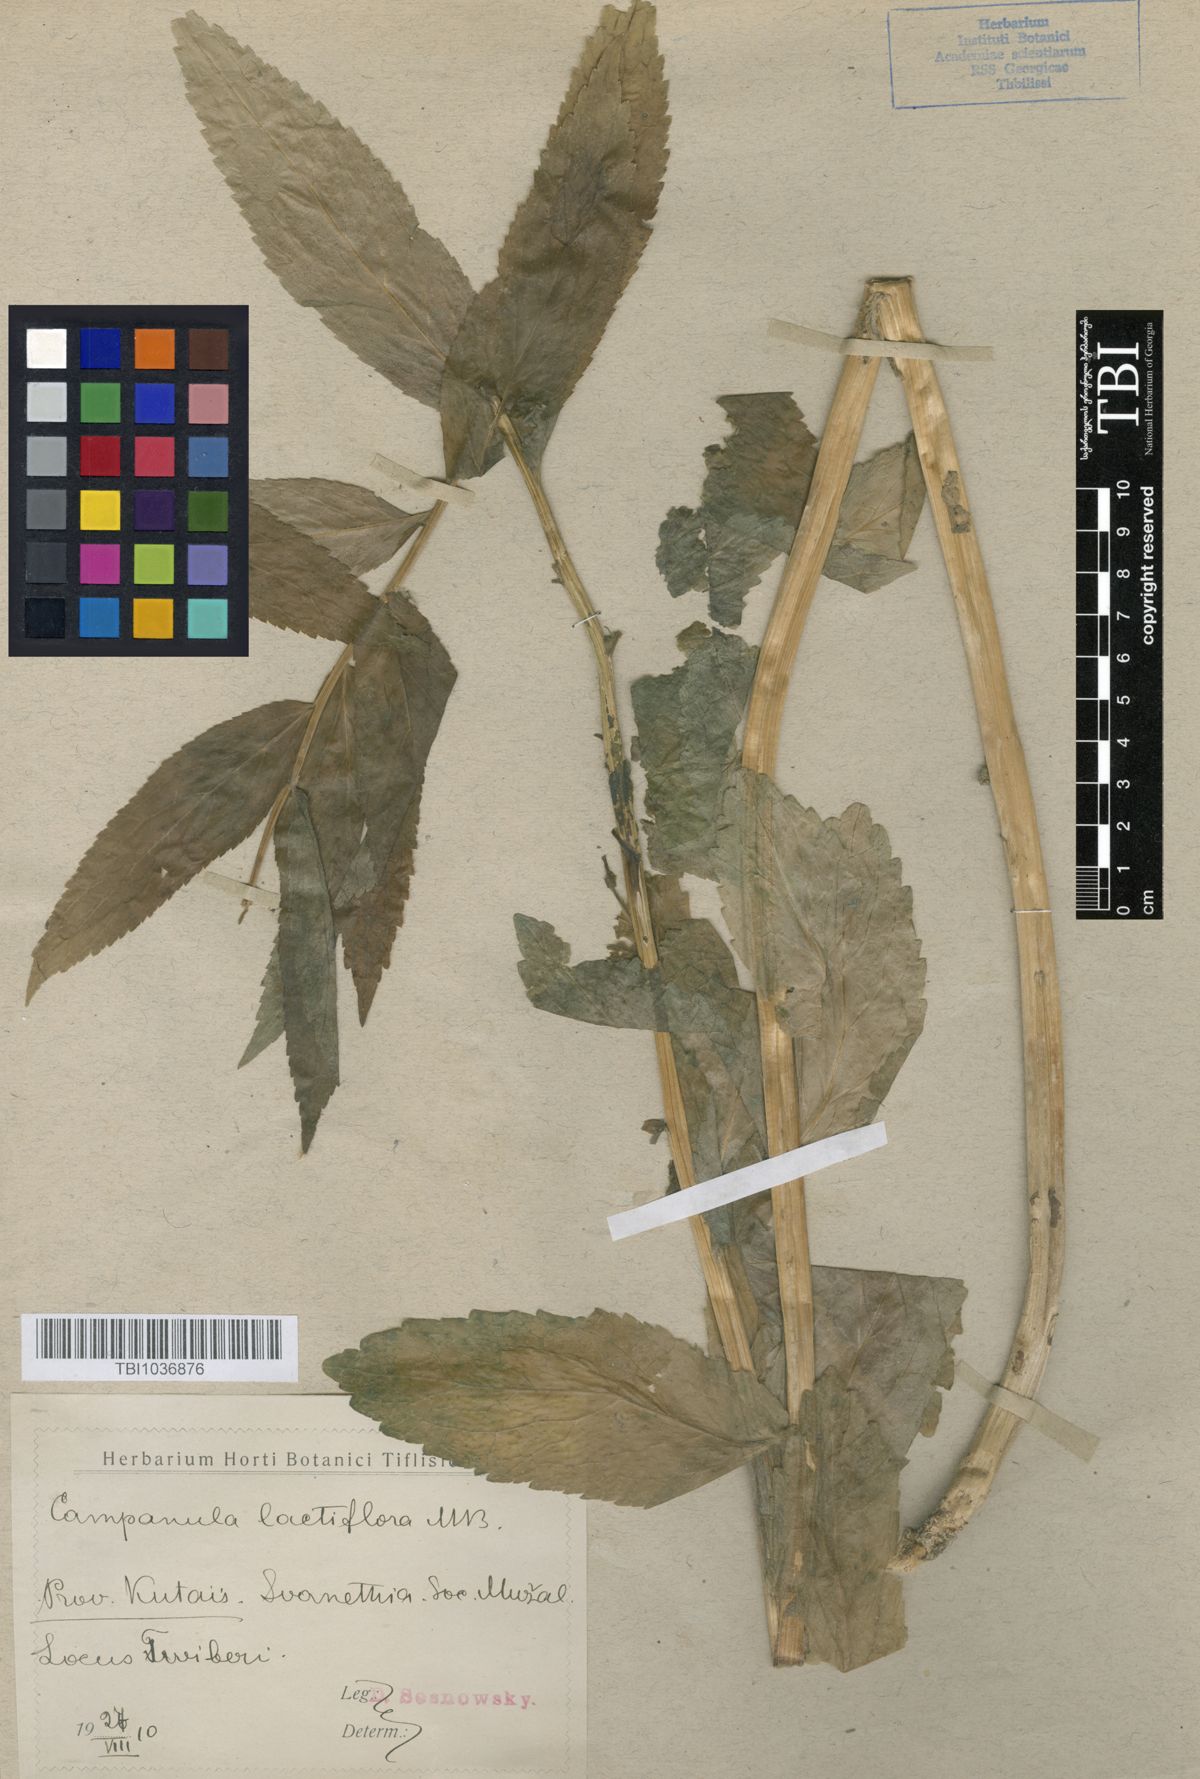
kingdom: Plantae
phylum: Tracheophyta
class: Magnoliopsida
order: Asterales
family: Campanulaceae
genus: Campanula
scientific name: Campanula lactiflora
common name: Milky bellflower
